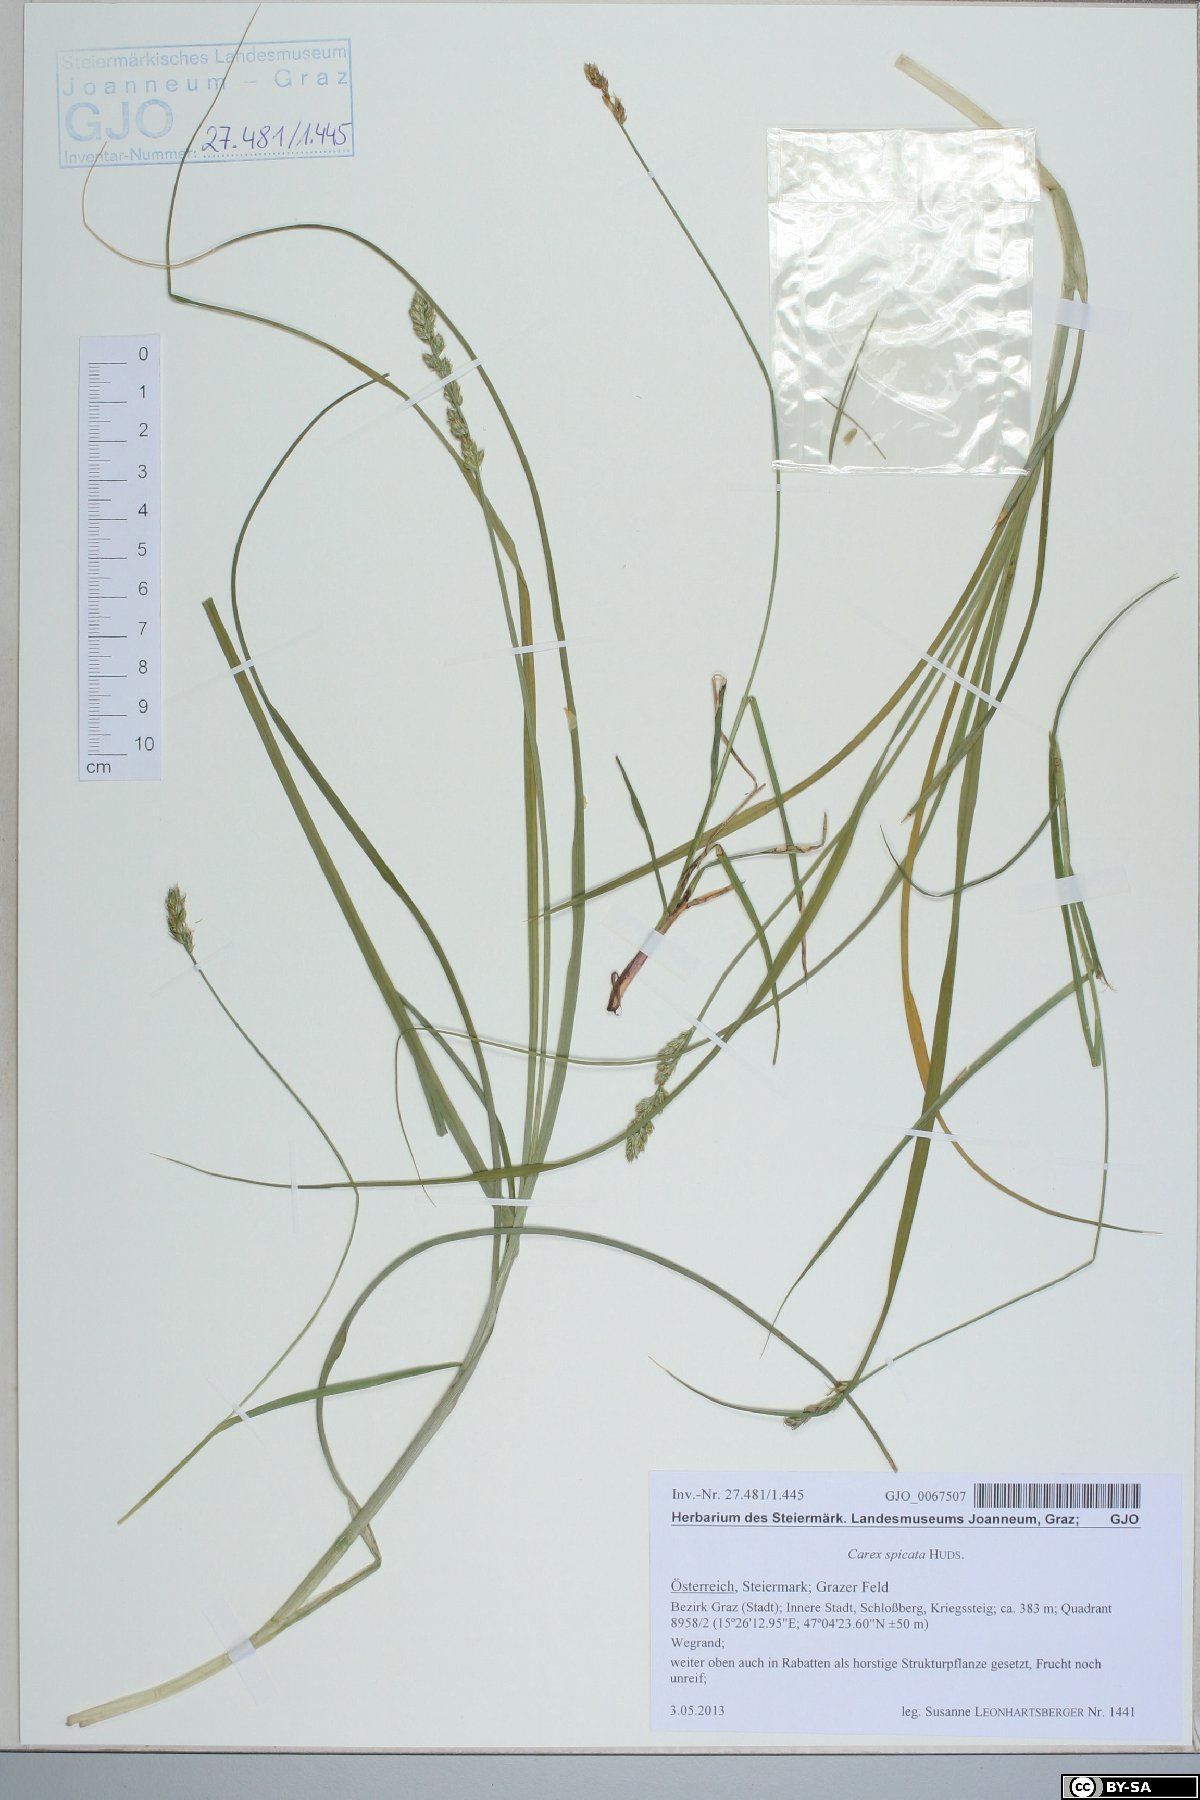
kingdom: Plantae
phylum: Tracheophyta
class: Liliopsida
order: Poales
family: Cyperaceae
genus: Carex
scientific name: Carex spicata
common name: Spiked sedge
